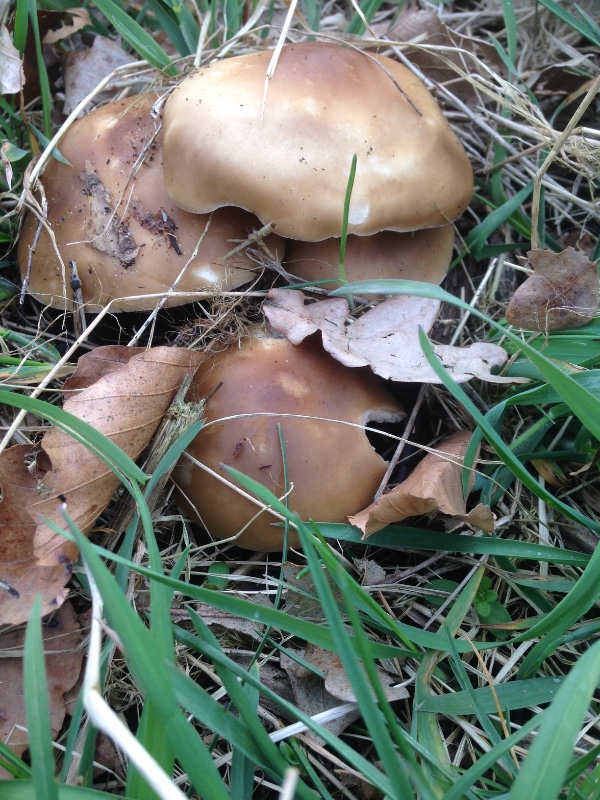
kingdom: Fungi
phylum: Basidiomycota
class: Agaricomycetes
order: Agaricales
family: Tricholomataceae
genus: Melanoleuca
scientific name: Melanoleuca cognata
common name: gyldengrå munkehat
